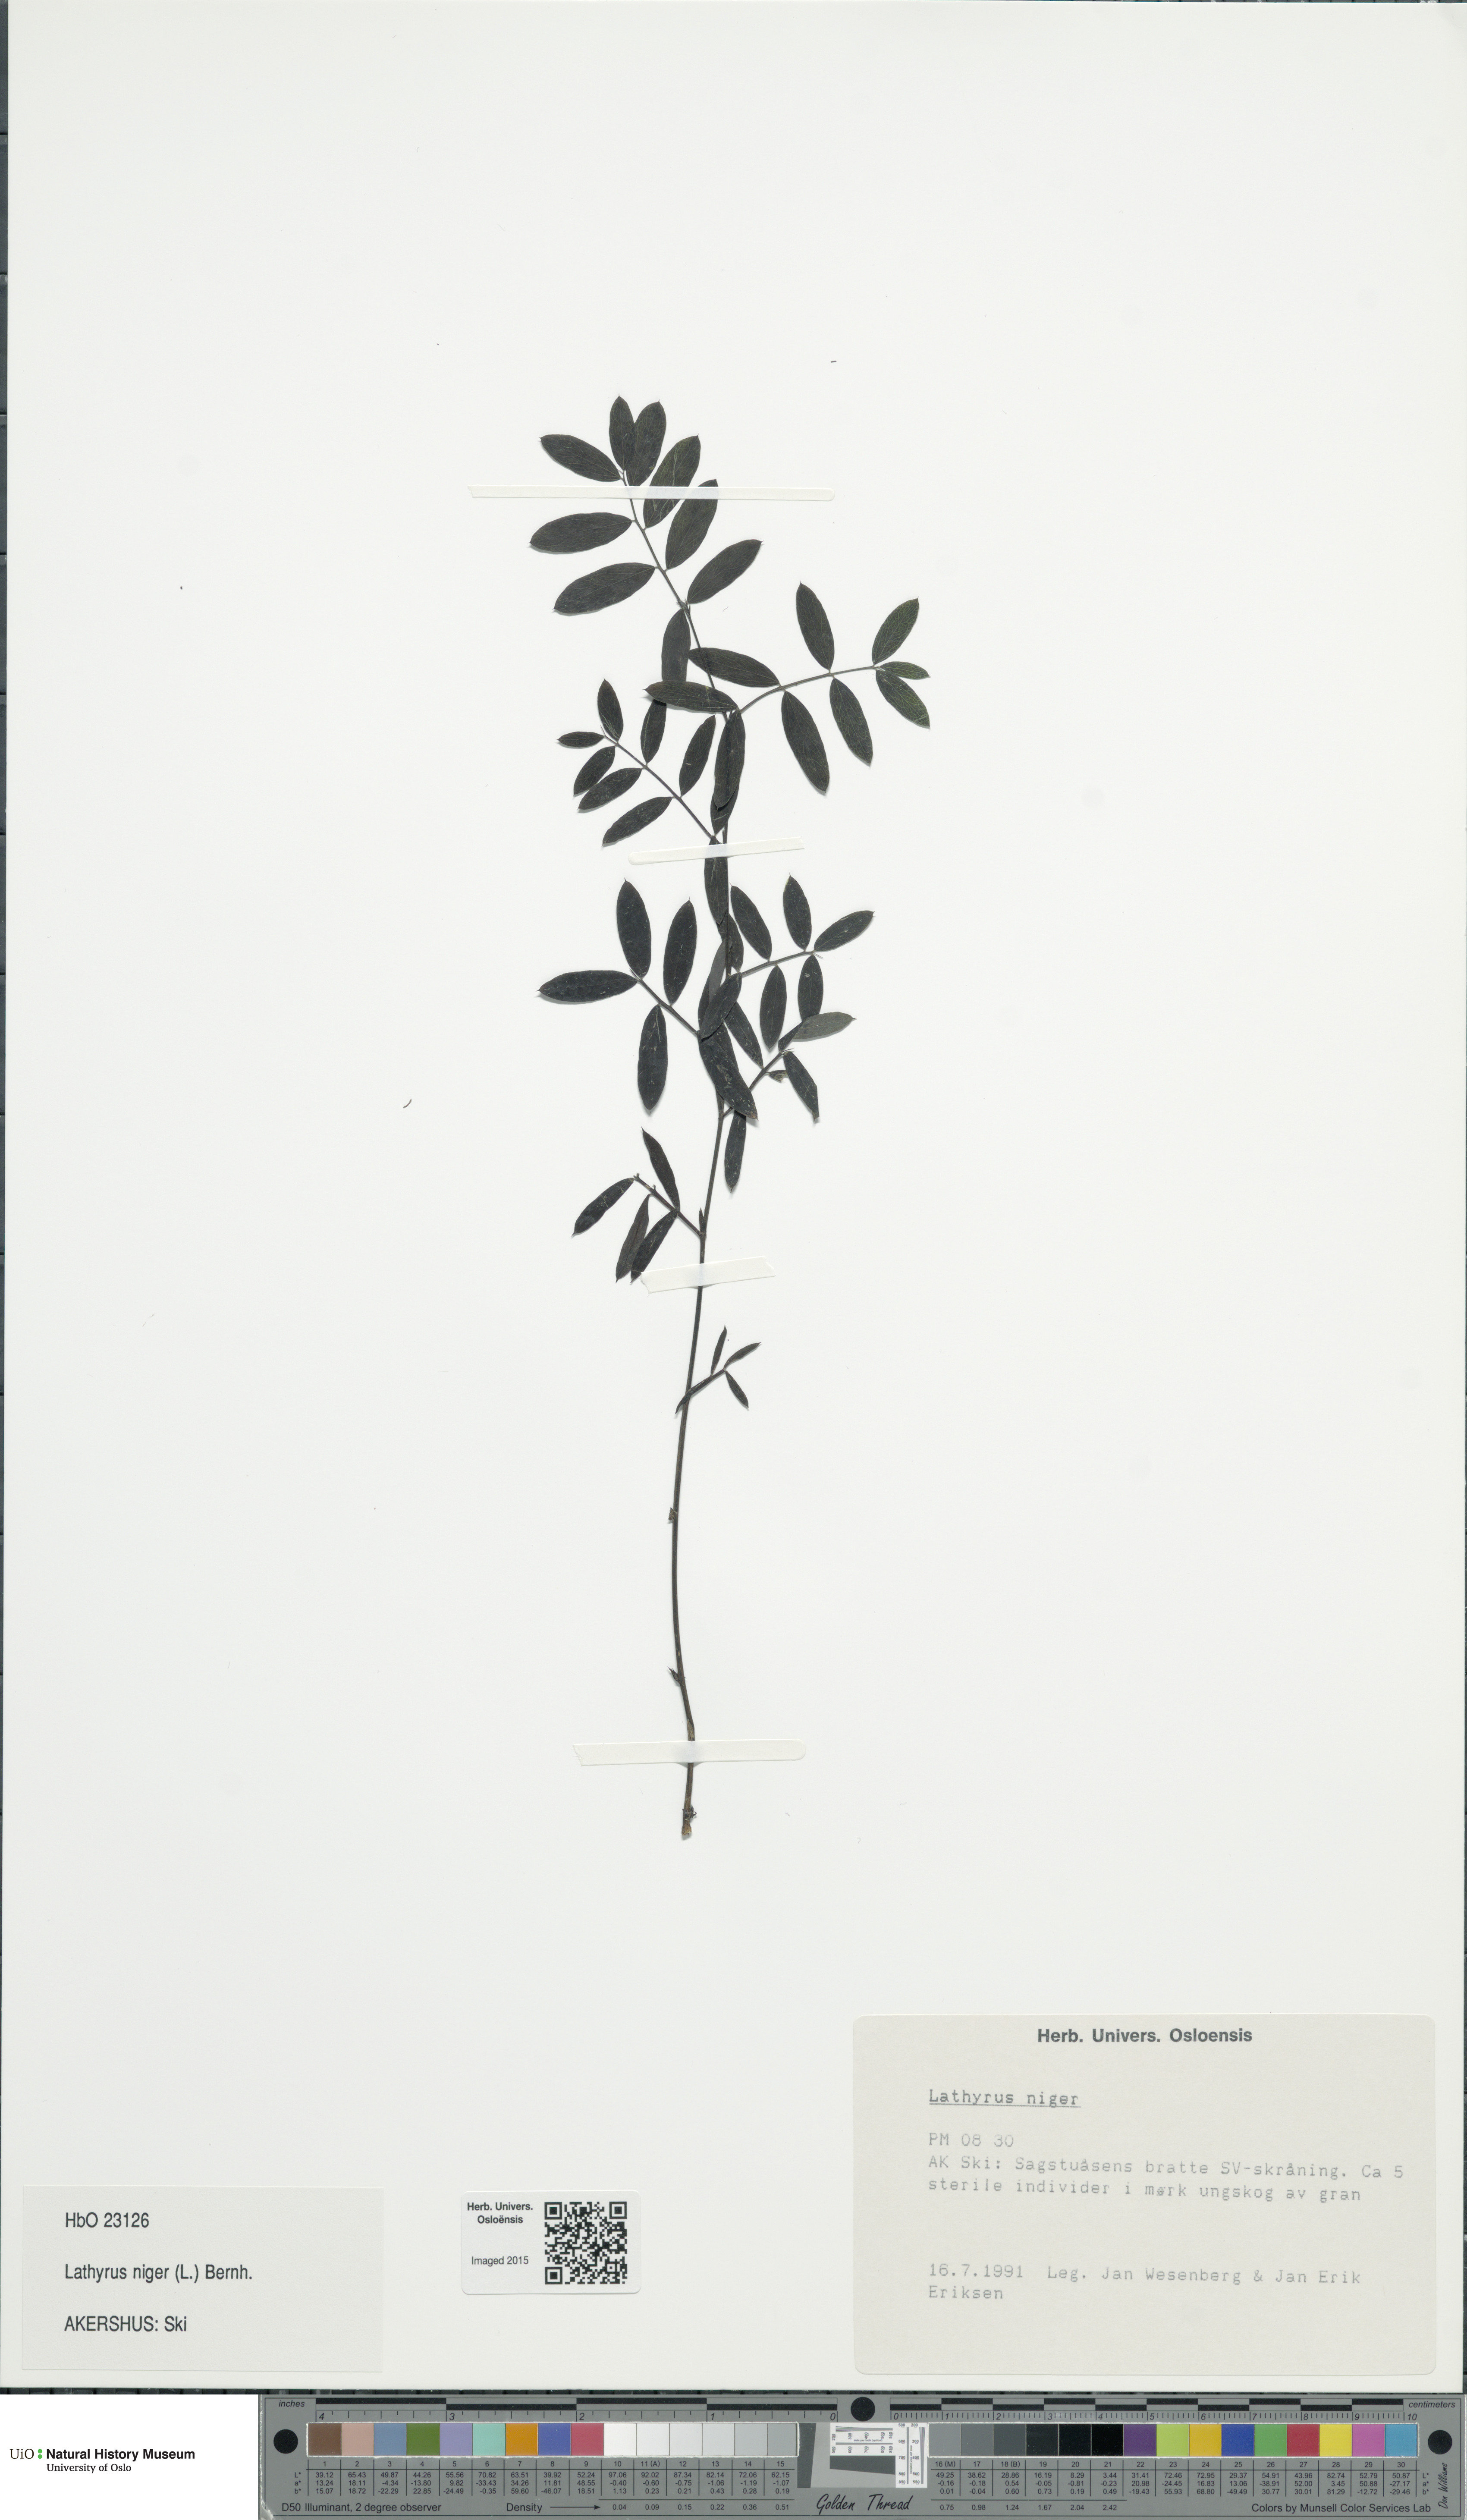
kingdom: Plantae
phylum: Tracheophyta
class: Magnoliopsida
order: Fabales
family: Fabaceae
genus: Lathyrus
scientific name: Lathyrus niger
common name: Black pea
